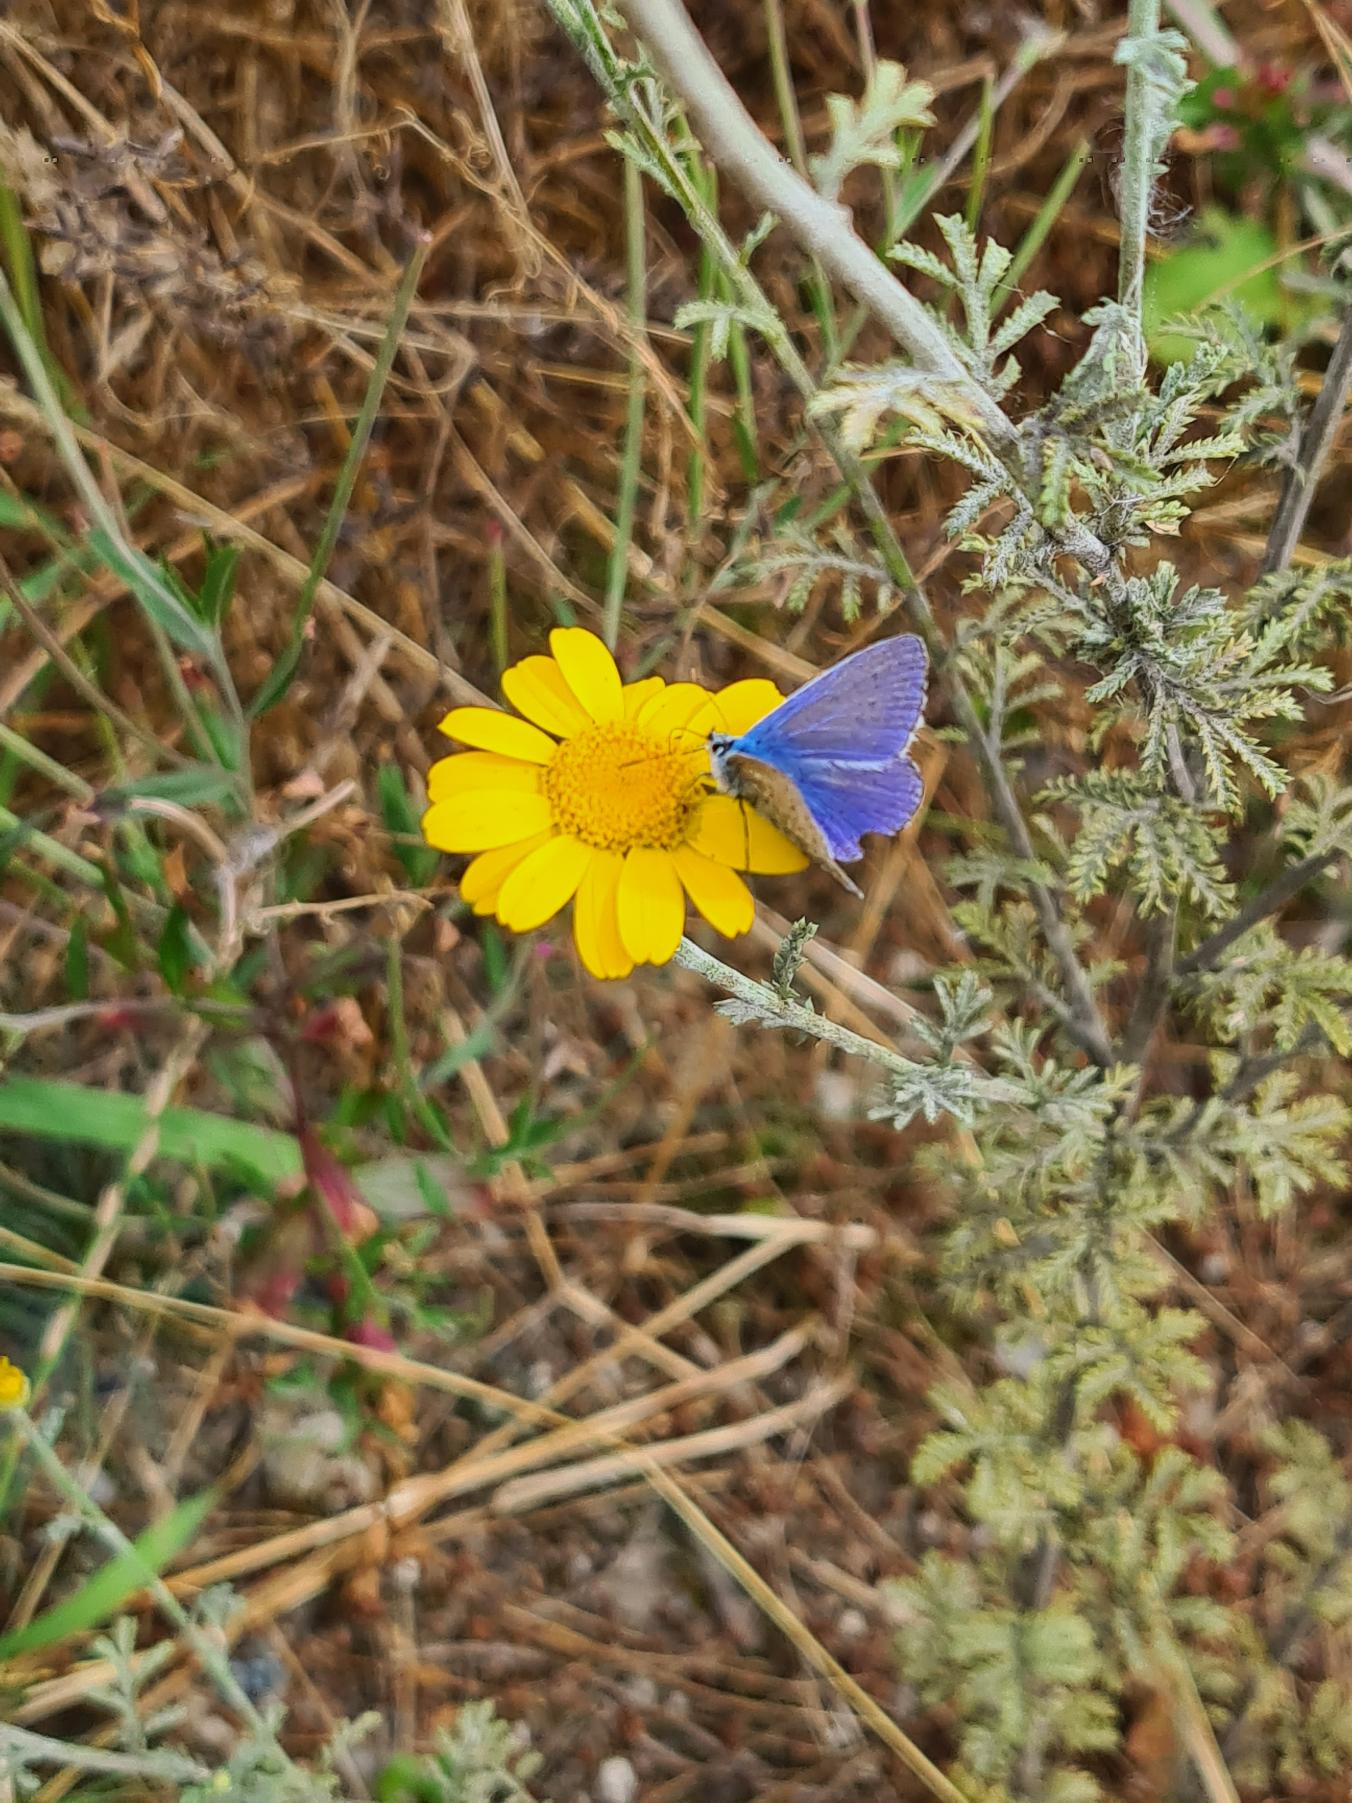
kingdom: Animalia
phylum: Arthropoda
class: Insecta
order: Lepidoptera
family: Lycaenidae
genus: Polyommatus
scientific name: Polyommatus icarus
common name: Almindelig blåfugl
